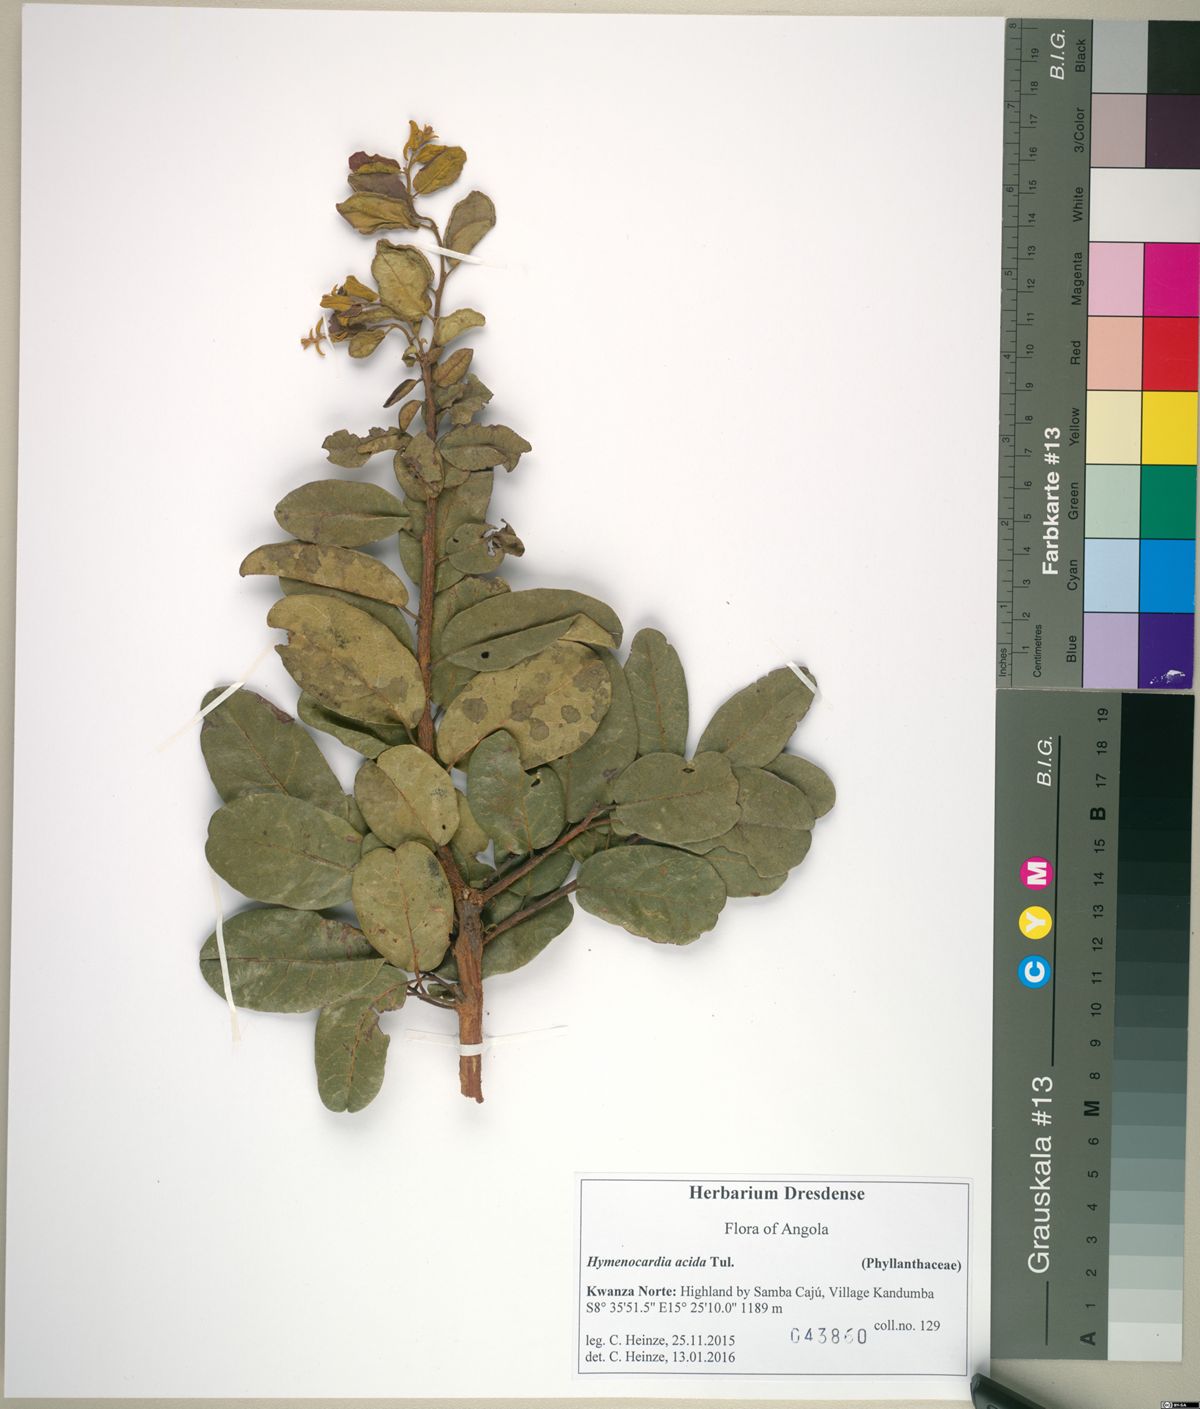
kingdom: Plantae
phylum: Tracheophyta
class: Magnoliopsida
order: Malpighiales
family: Phyllanthaceae
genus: Hymenocardia
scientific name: Hymenocardia acida
